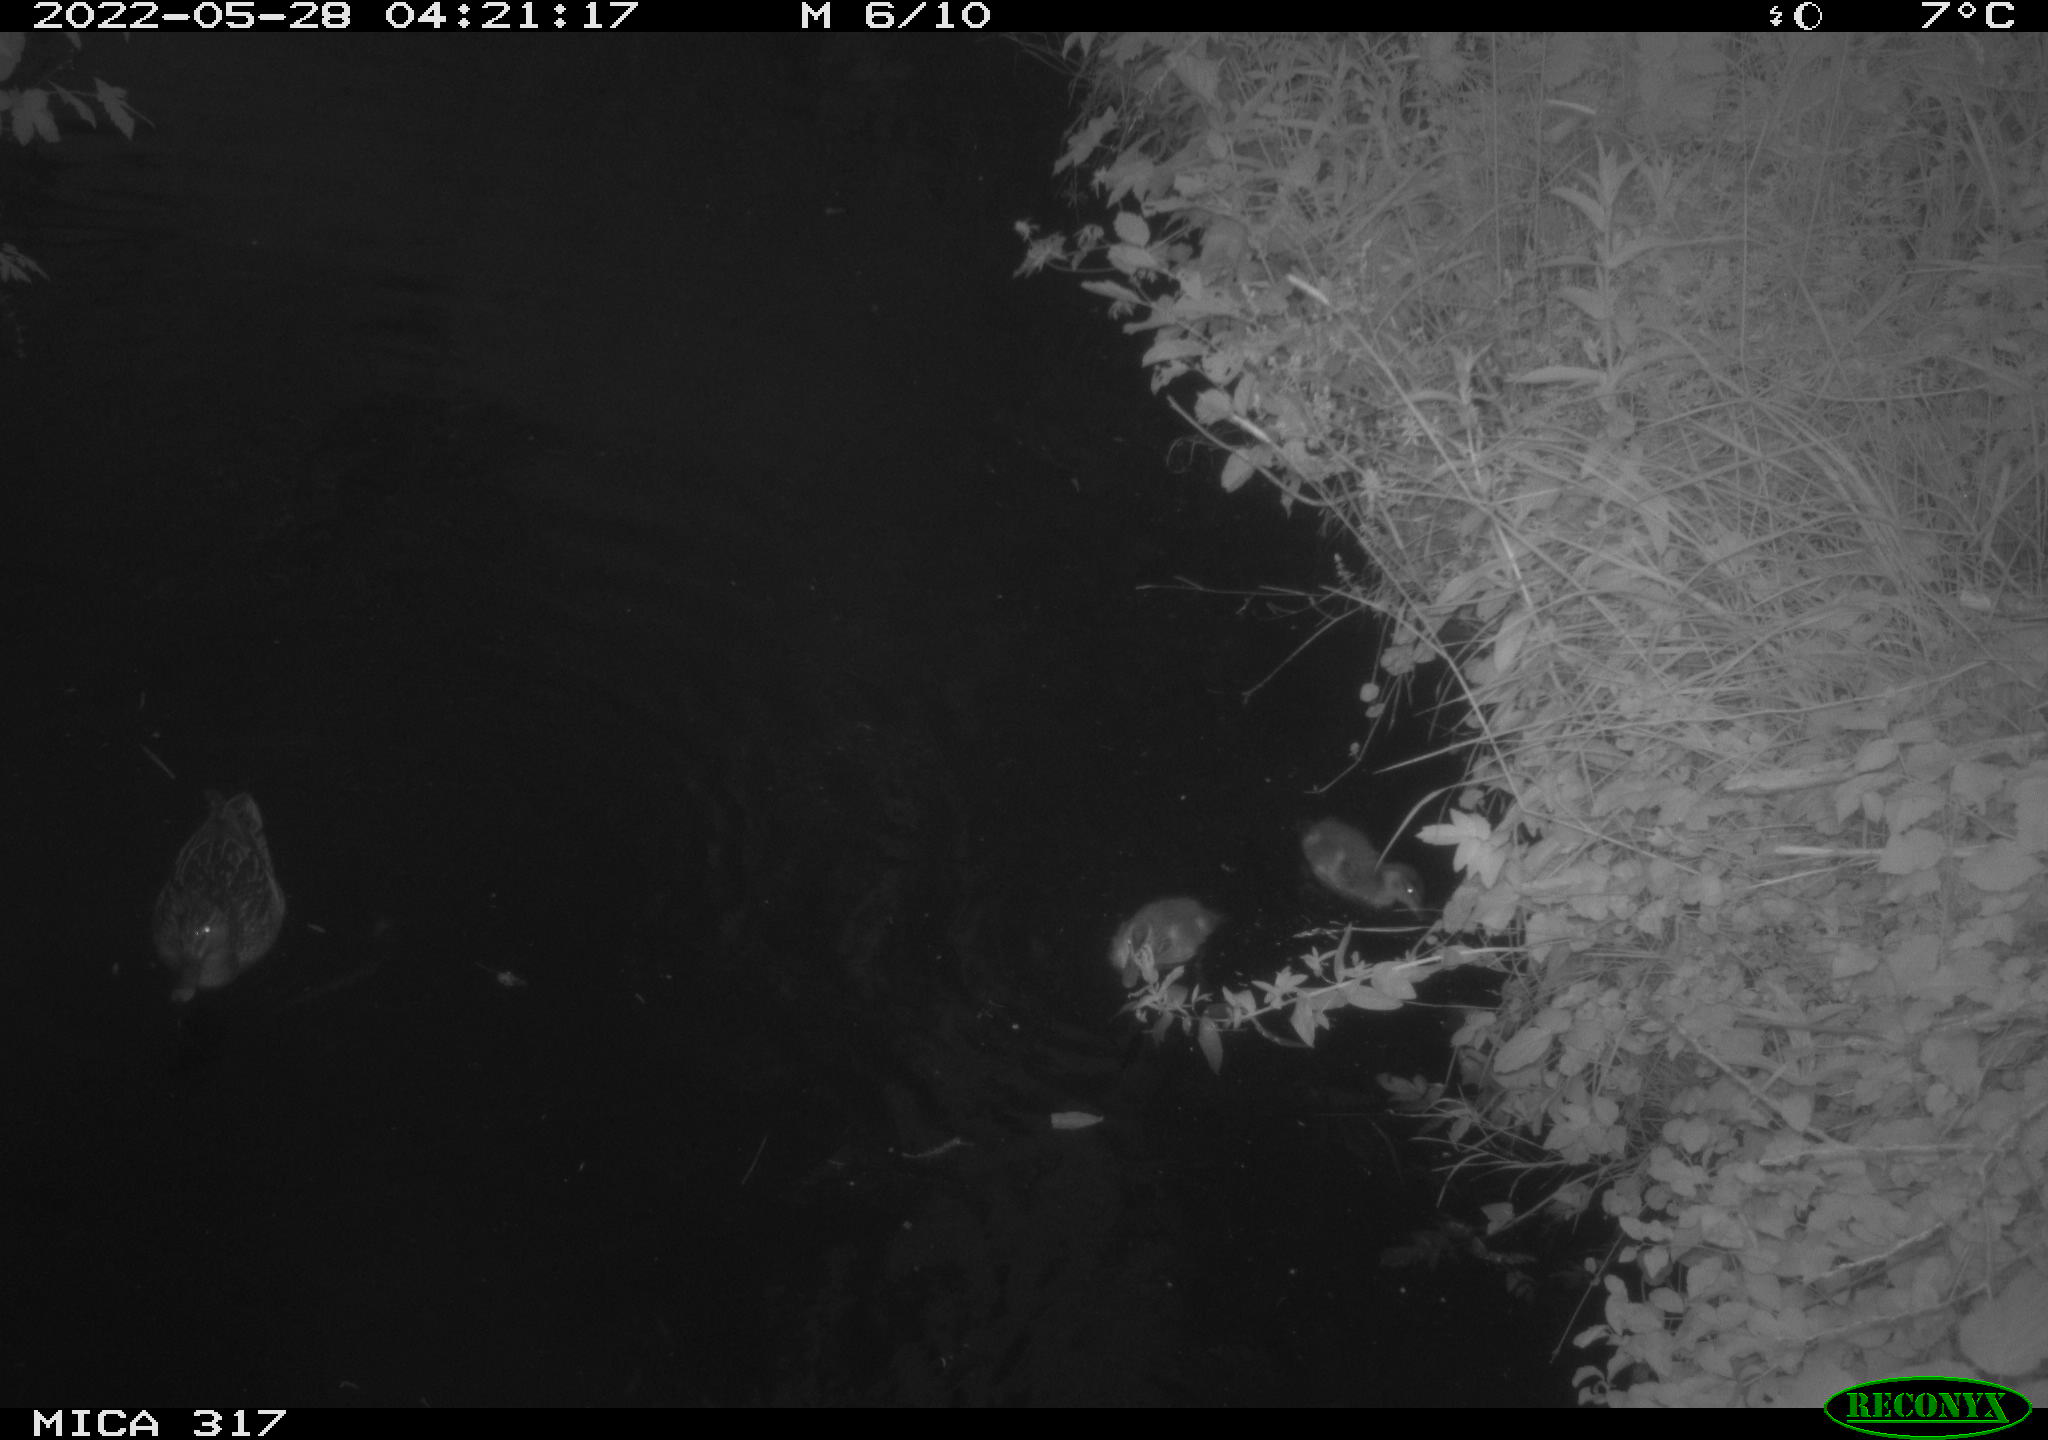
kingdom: Animalia
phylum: Chordata
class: Aves
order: Anseriformes
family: Anatidae
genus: Anas
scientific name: Anas
